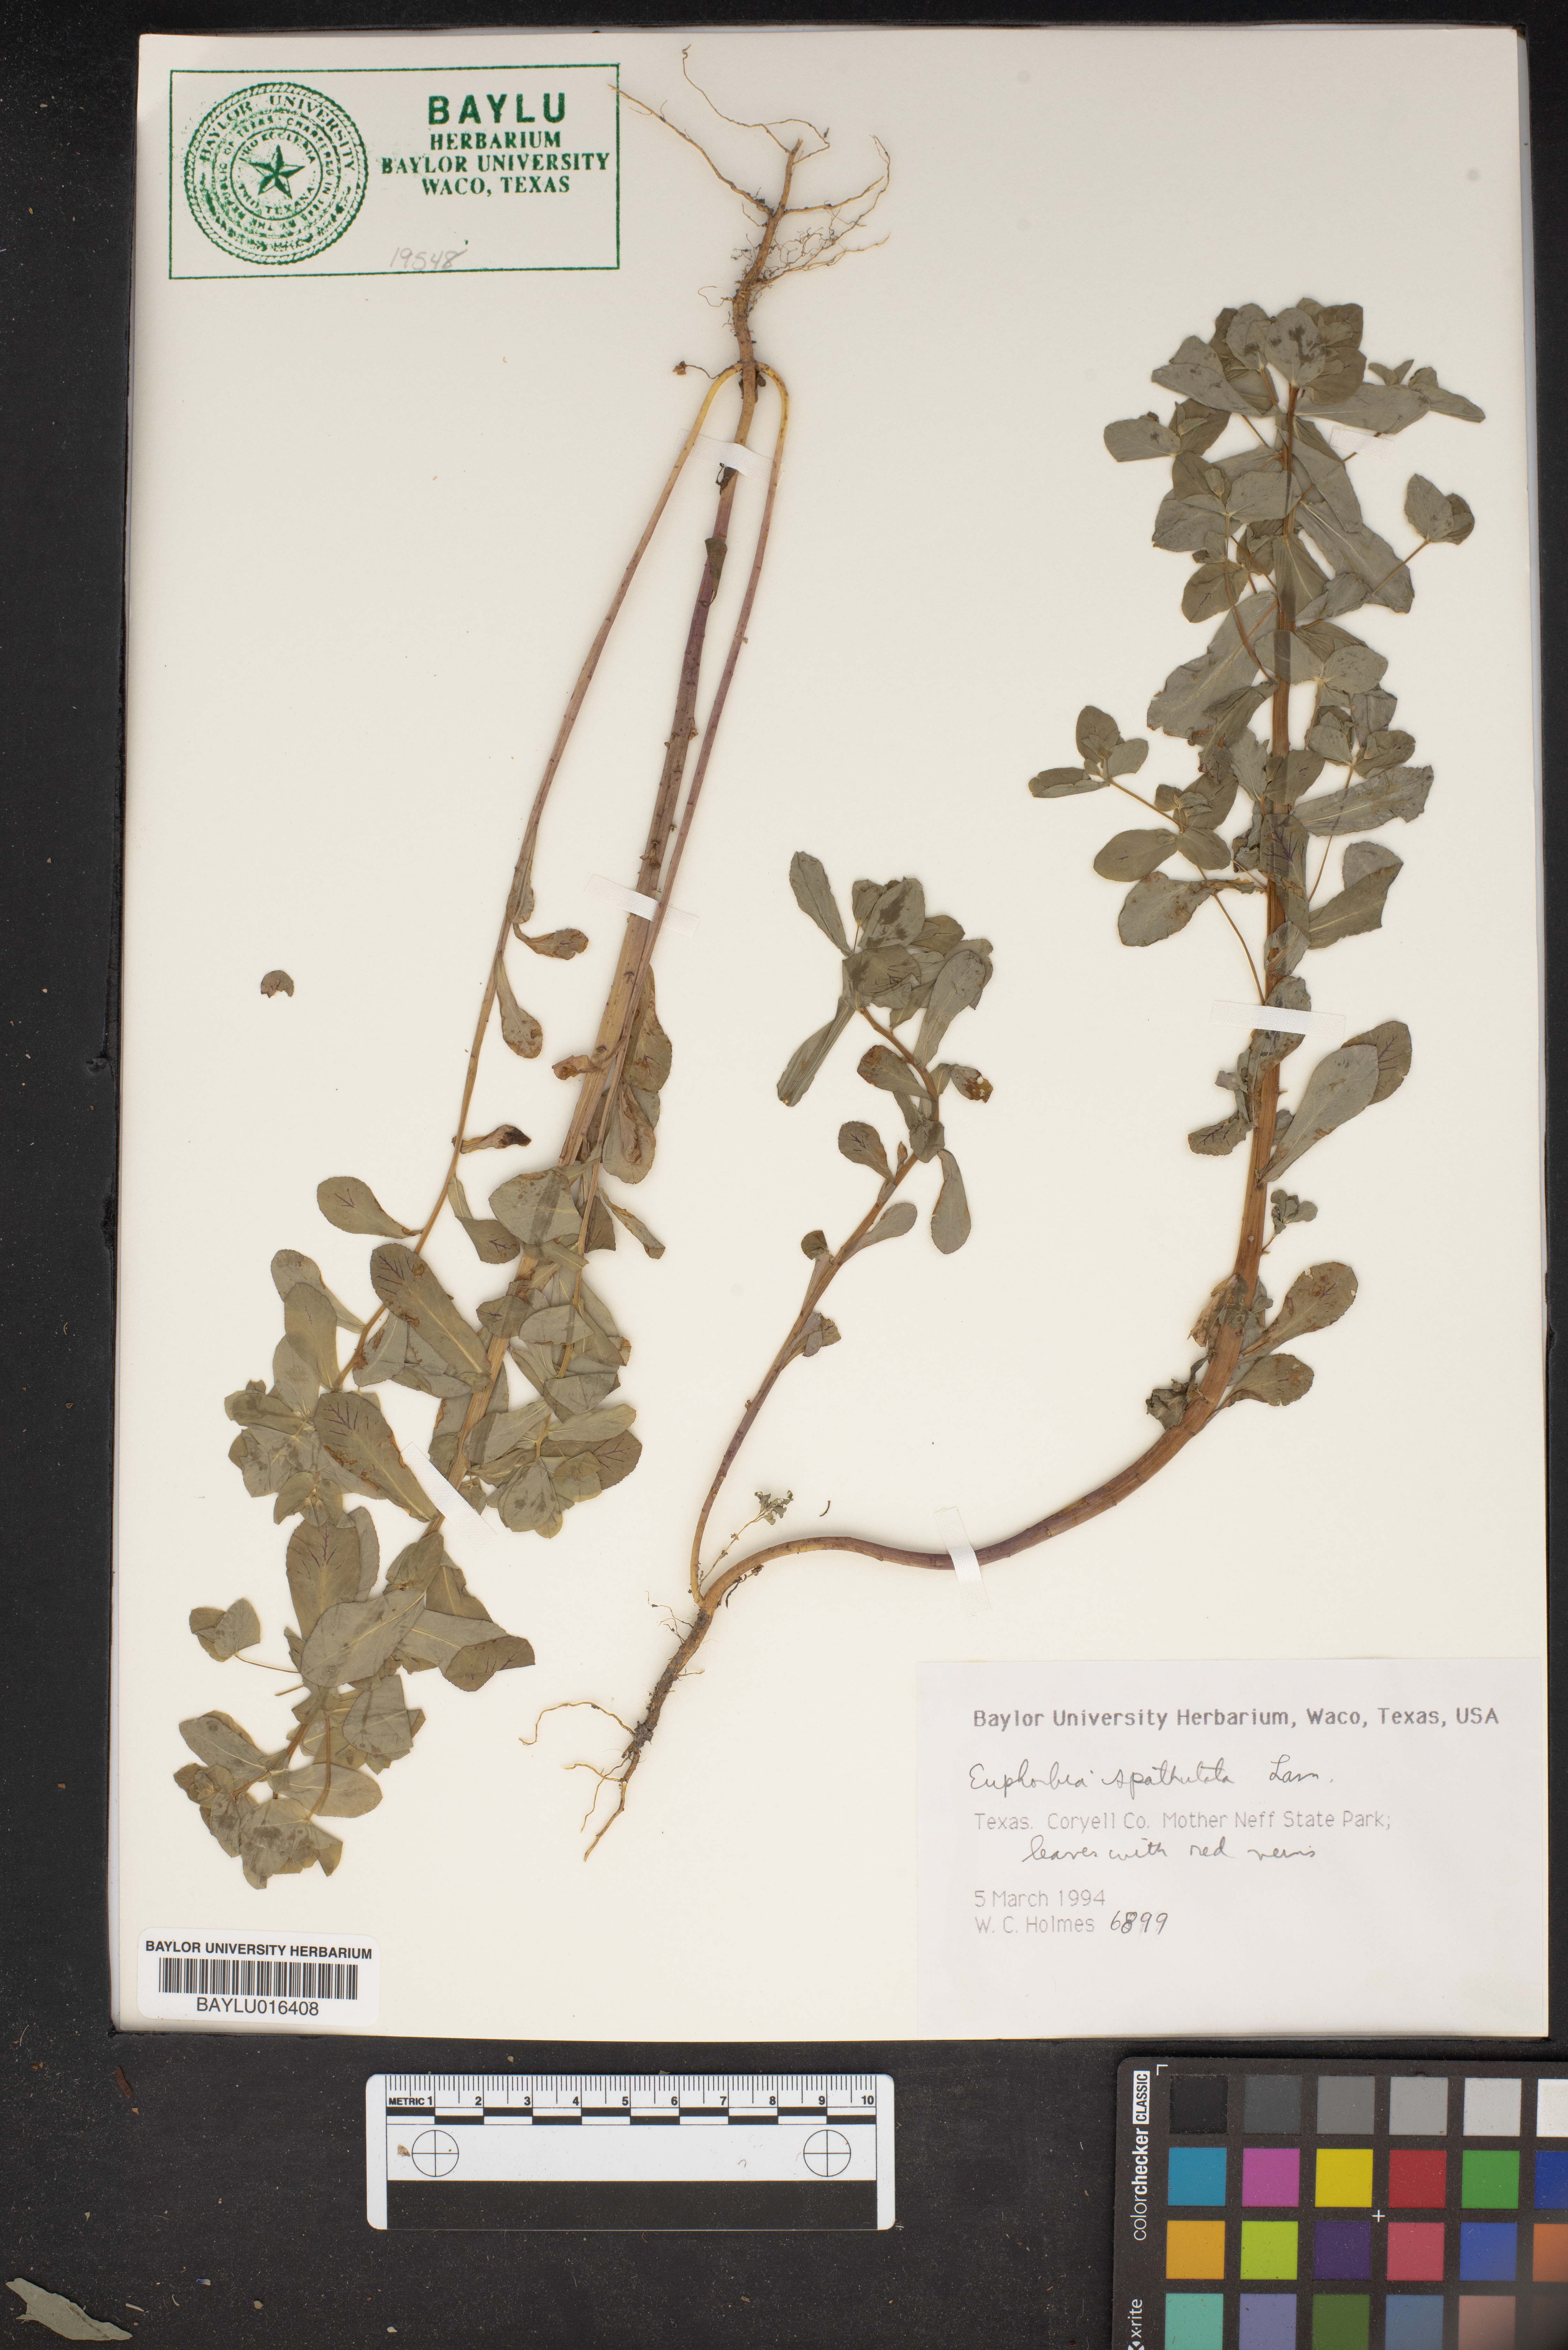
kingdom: Plantae
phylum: Tracheophyta
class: Magnoliopsida
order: Malpighiales
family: Euphorbiaceae
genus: Euphorbia
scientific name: Euphorbia spathulata
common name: Blunt spurge
